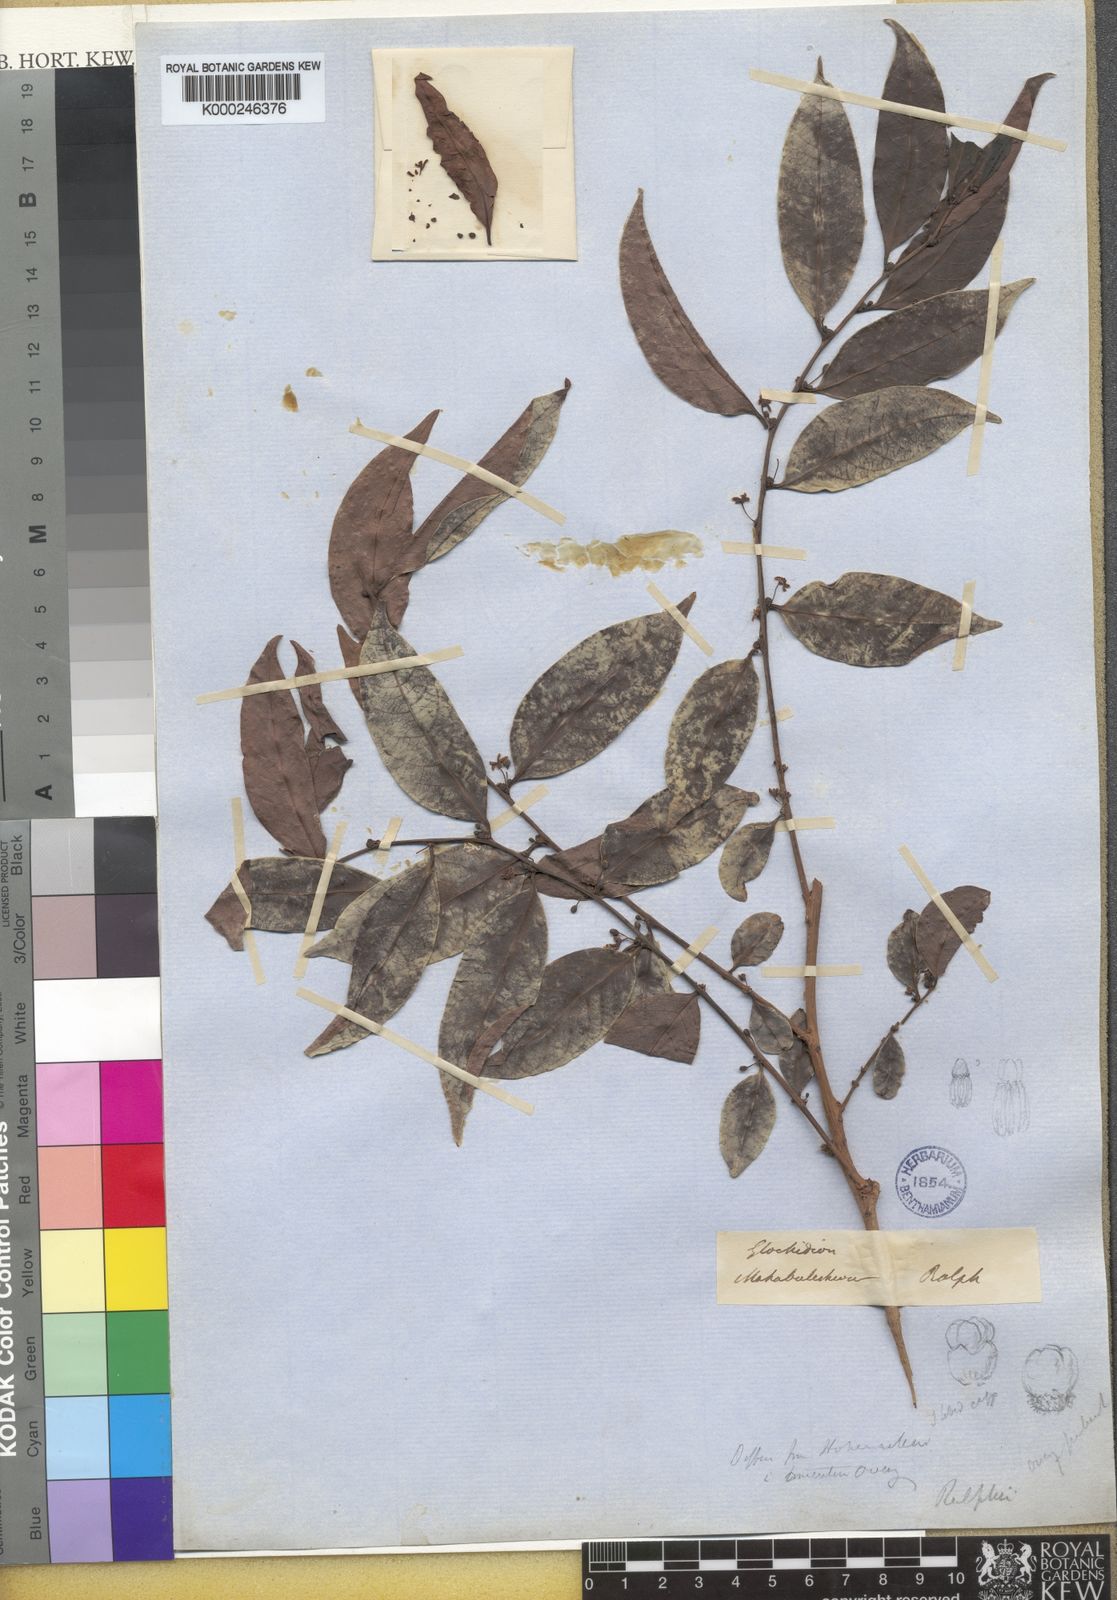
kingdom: Plantae
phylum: Tracheophyta
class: Magnoliopsida
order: Malpighiales
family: Phyllanthaceae
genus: Glochidion
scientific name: Glochidion hohenackeri
